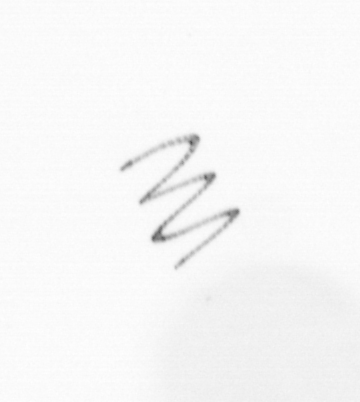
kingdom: Chromista
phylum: Ochrophyta
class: Bacillariophyceae
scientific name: Bacillariophyceae
